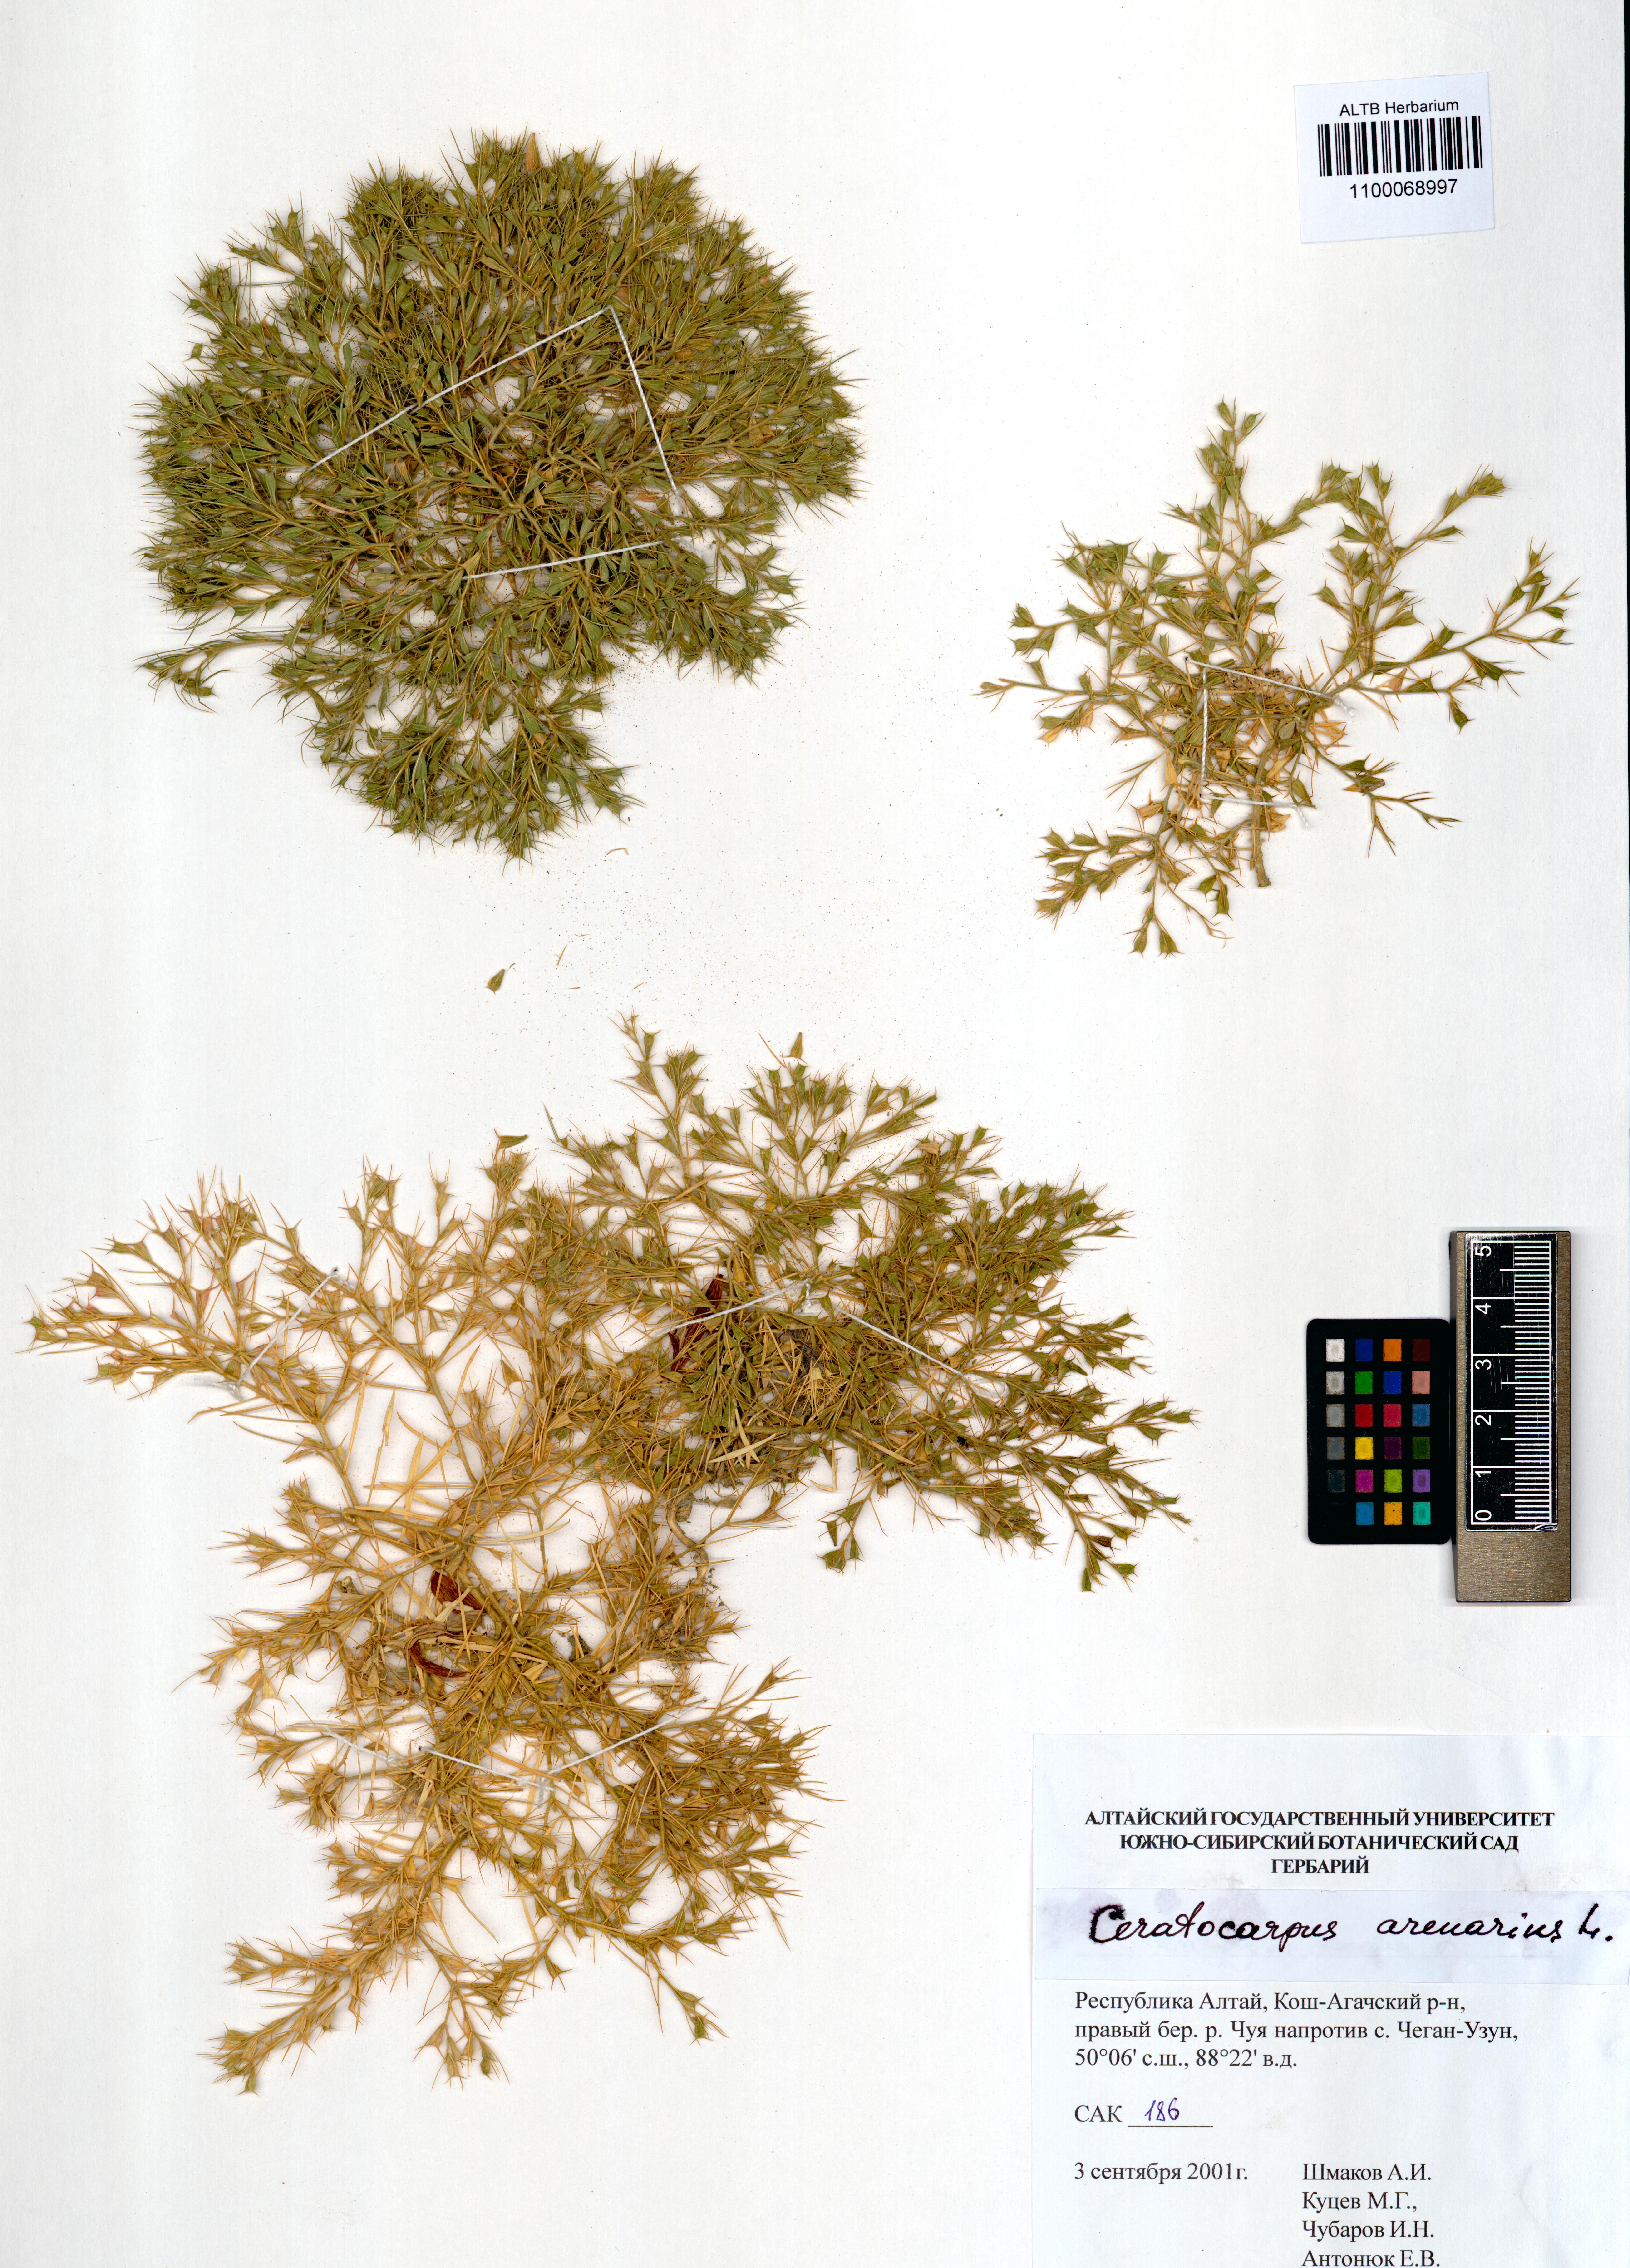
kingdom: Plantae
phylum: Tracheophyta
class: Magnoliopsida
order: Caryophyllales
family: Amaranthaceae
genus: Ceratocarpus
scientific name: Ceratocarpus arenarius
